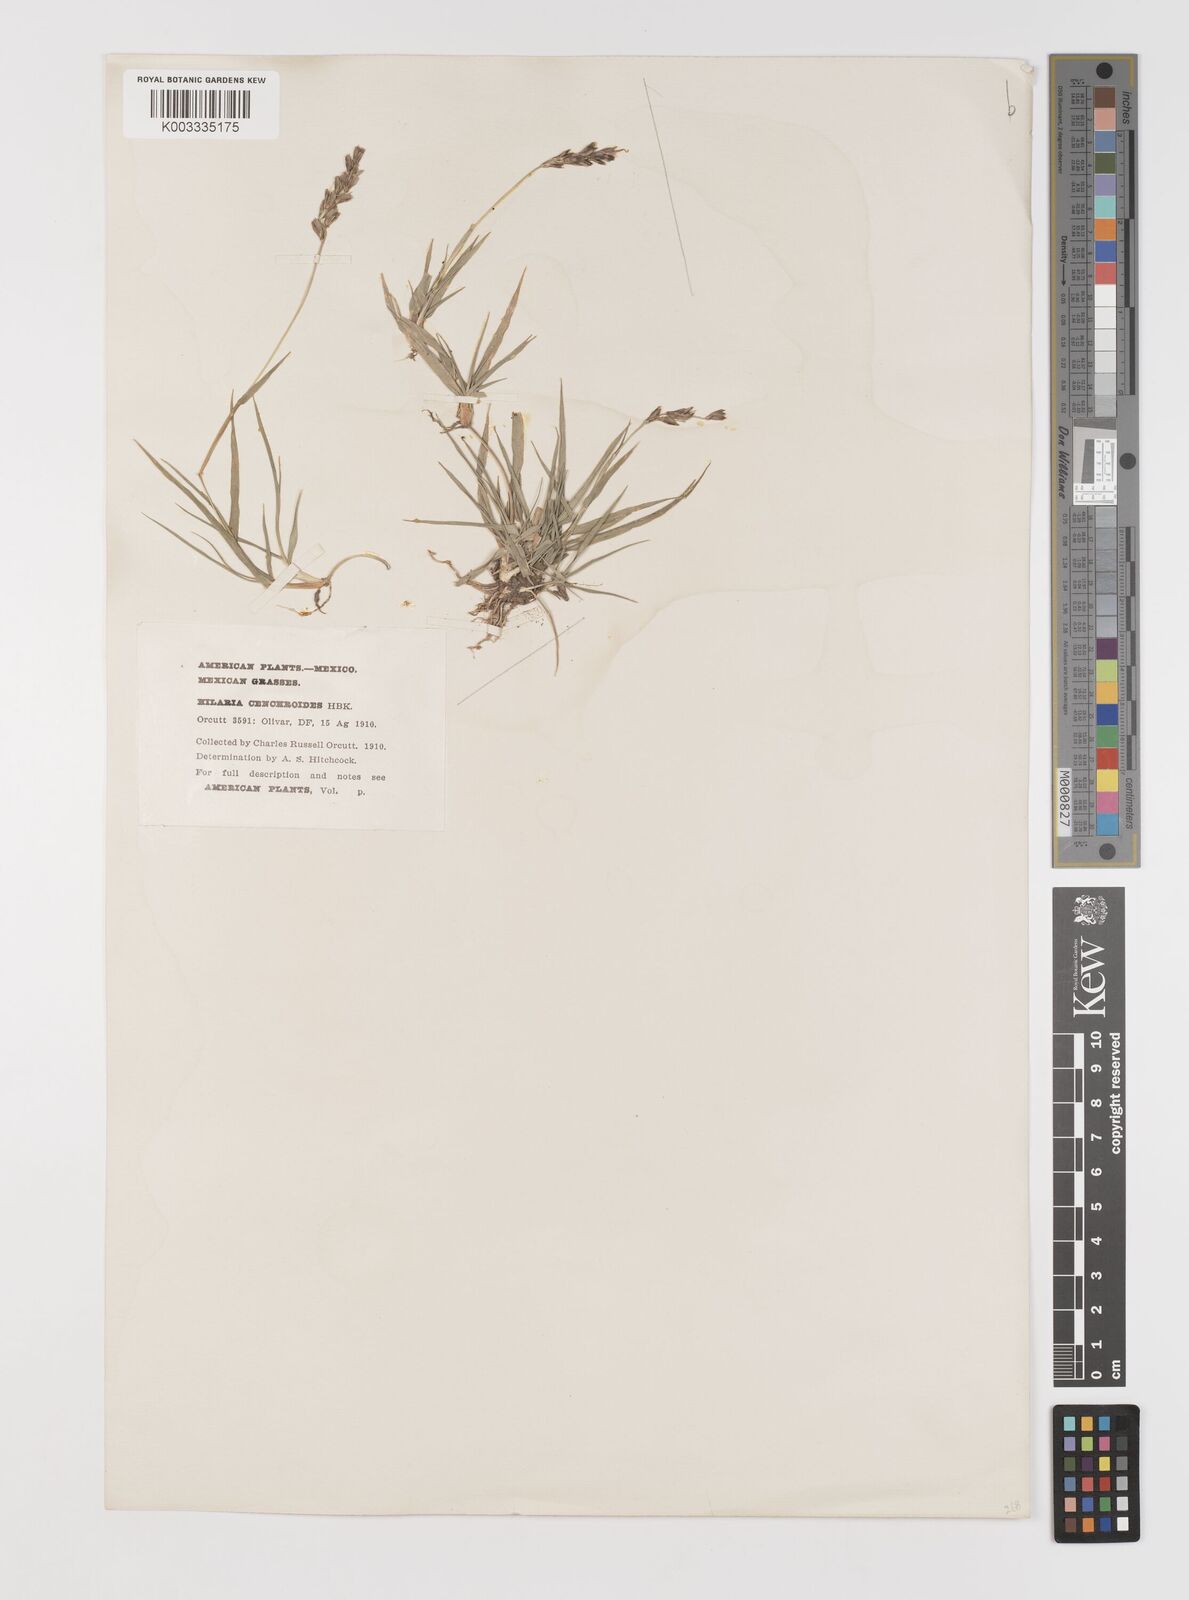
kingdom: Plantae
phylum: Tracheophyta
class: Liliopsida
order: Poales
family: Poaceae
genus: Hilaria
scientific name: Hilaria cenchroides
